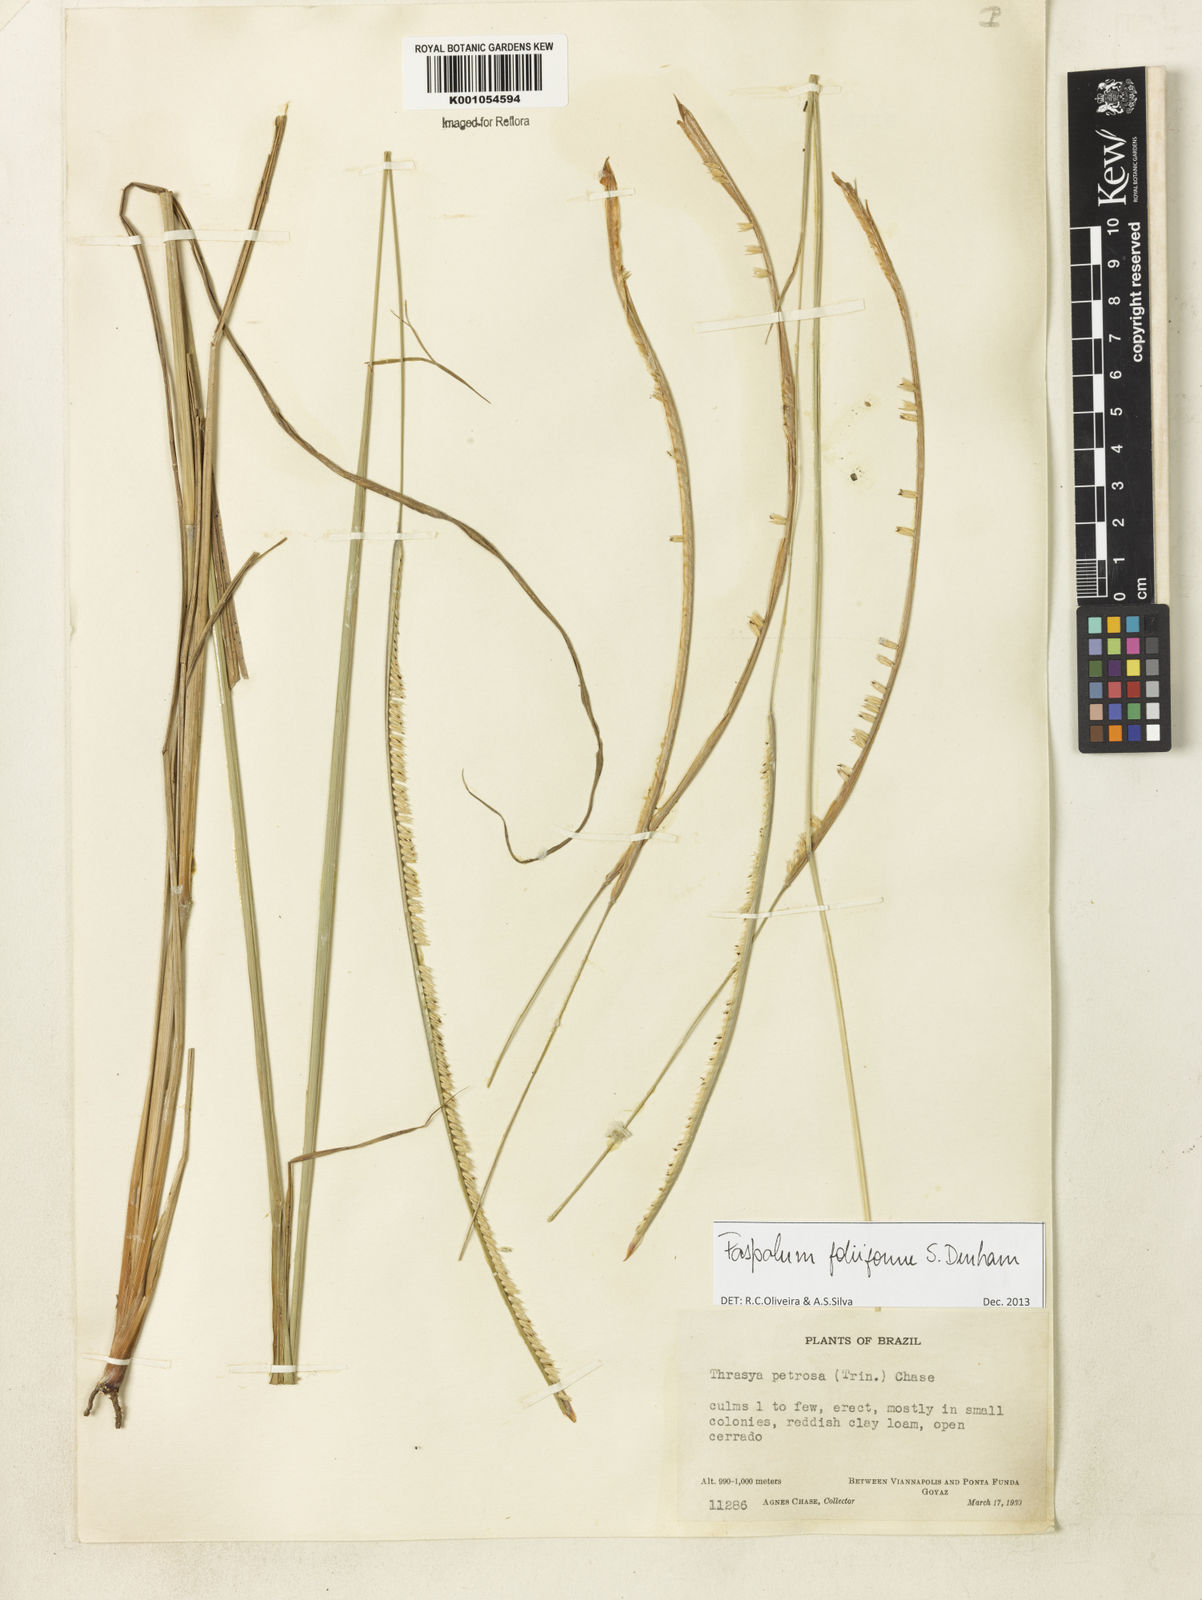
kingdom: Plantae
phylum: Tracheophyta
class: Liliopsida
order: Poales
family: Poaceae
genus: Paspalum
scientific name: Paspalum foliiforme
